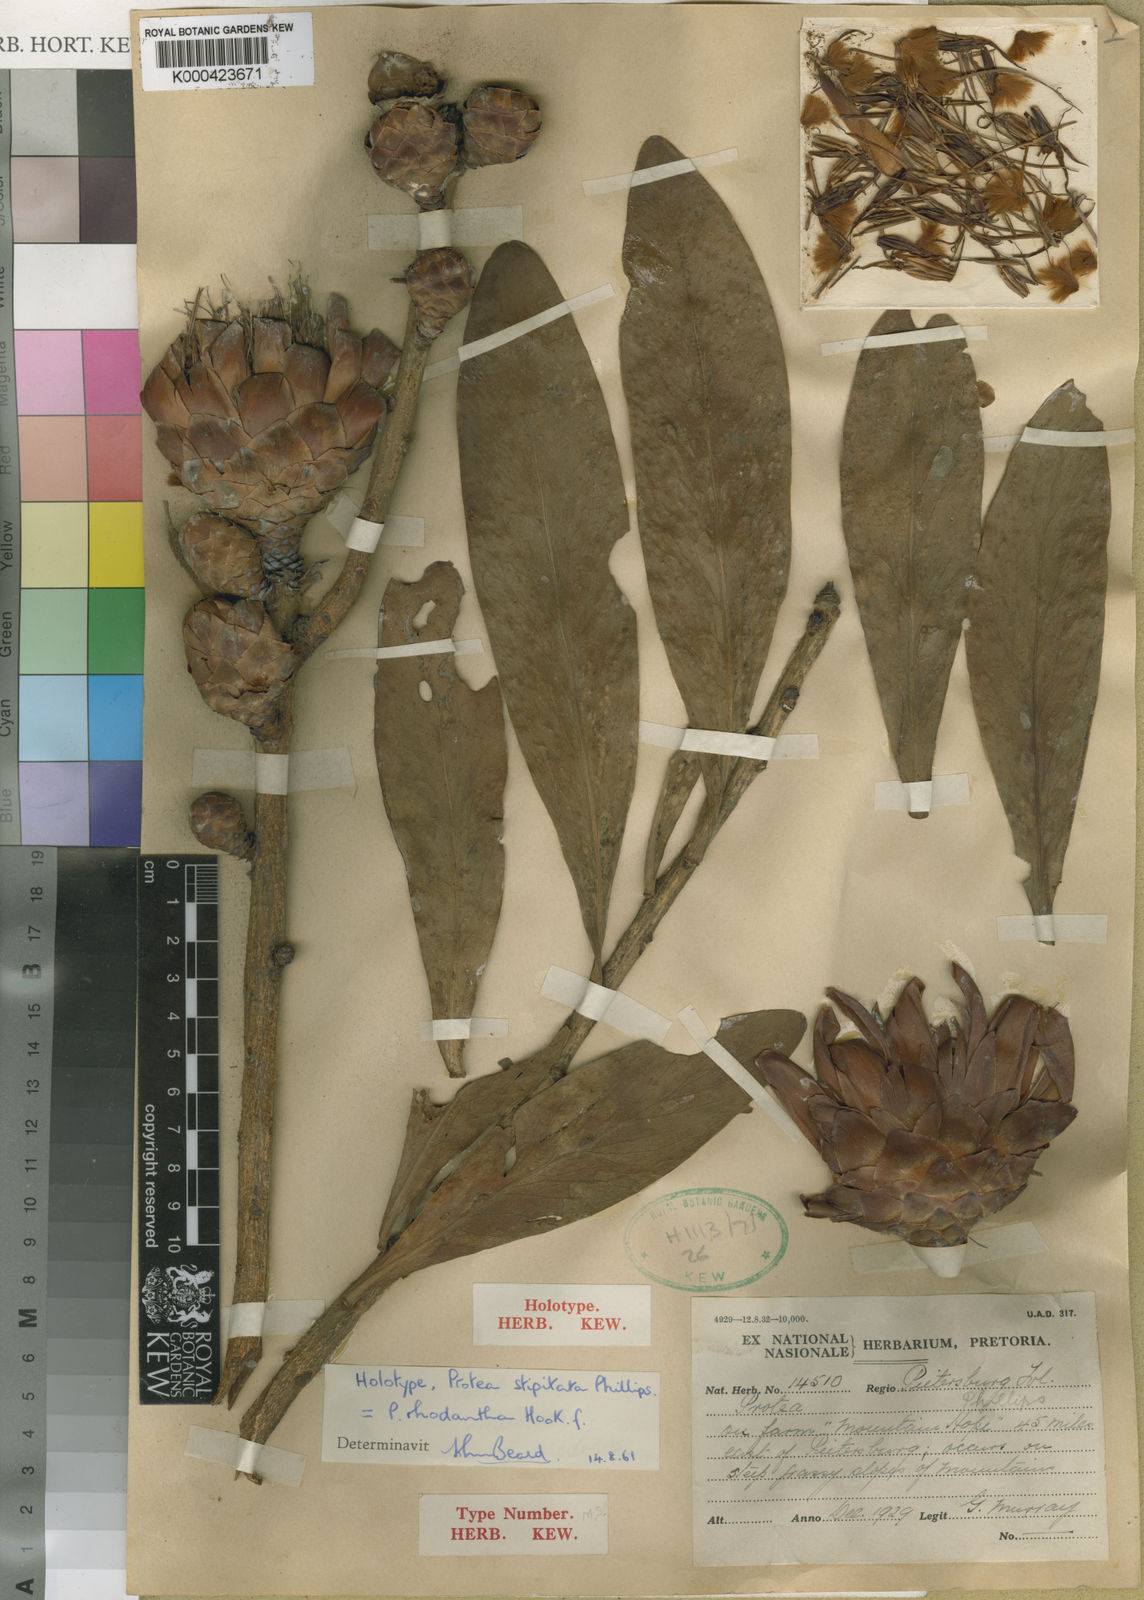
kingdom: Plantae
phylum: Tracheophyta
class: Magnoliopsida
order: Proteales
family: Proteaceae
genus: Protea
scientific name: Protea caffra
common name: Common sugarbush
